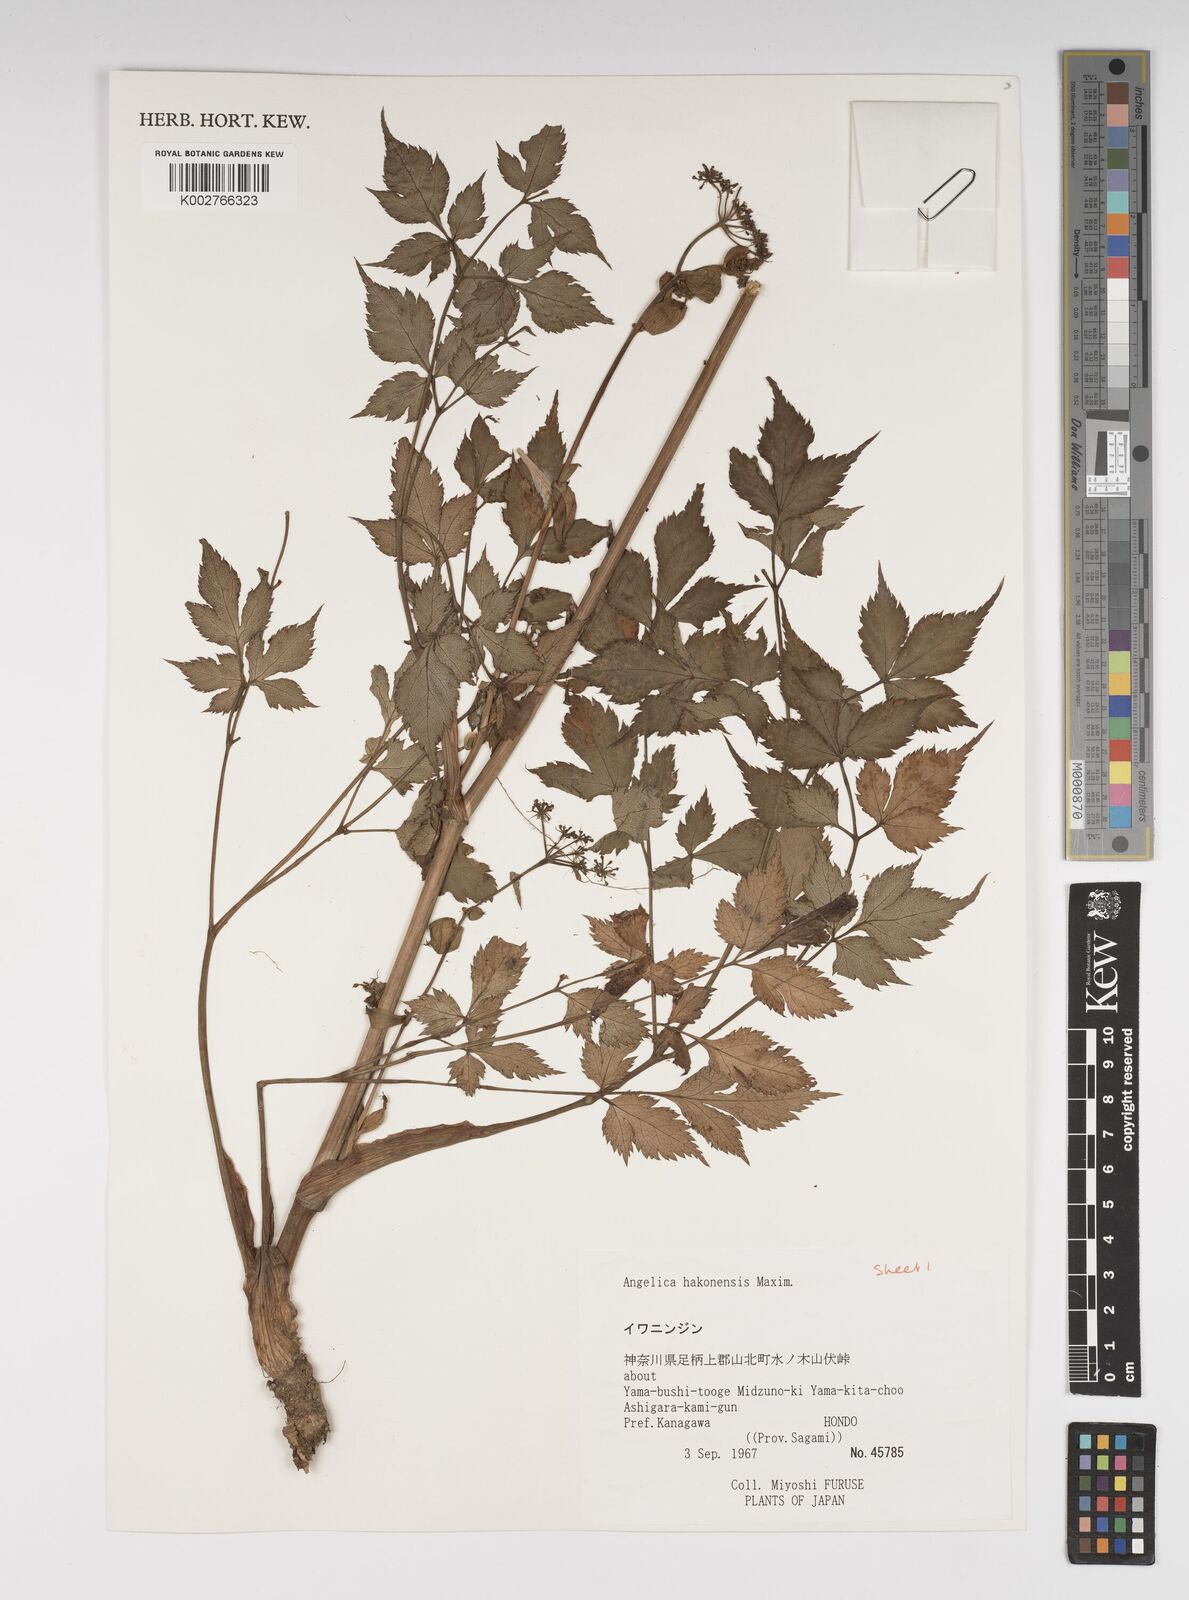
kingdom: Plantae
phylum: Tracheophyta
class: Magnoliopsida
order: Apiales
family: Apiaceae
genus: Angelica
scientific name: Angelica hakonensis
